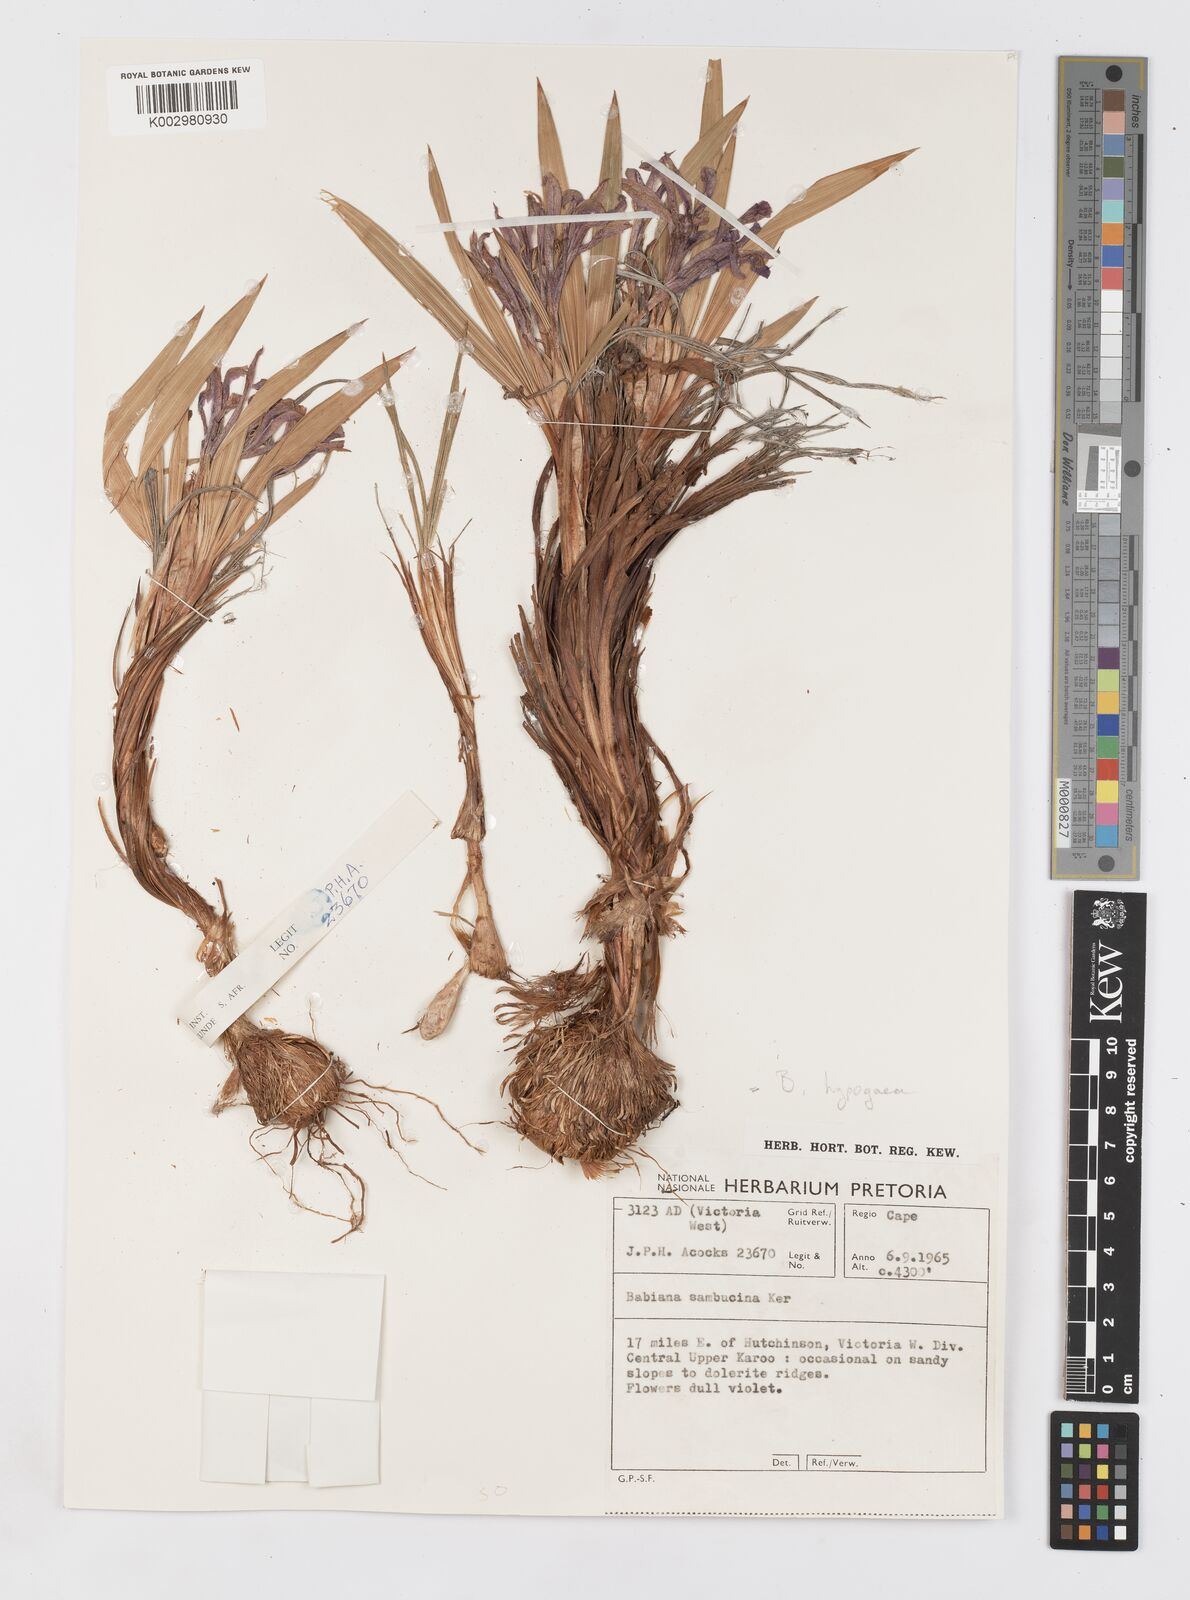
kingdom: Plantae
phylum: Tracheophyta
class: Liliopsida
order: Asparagales
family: Iridaceae
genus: Babiana
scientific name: Babiana hypogaea
